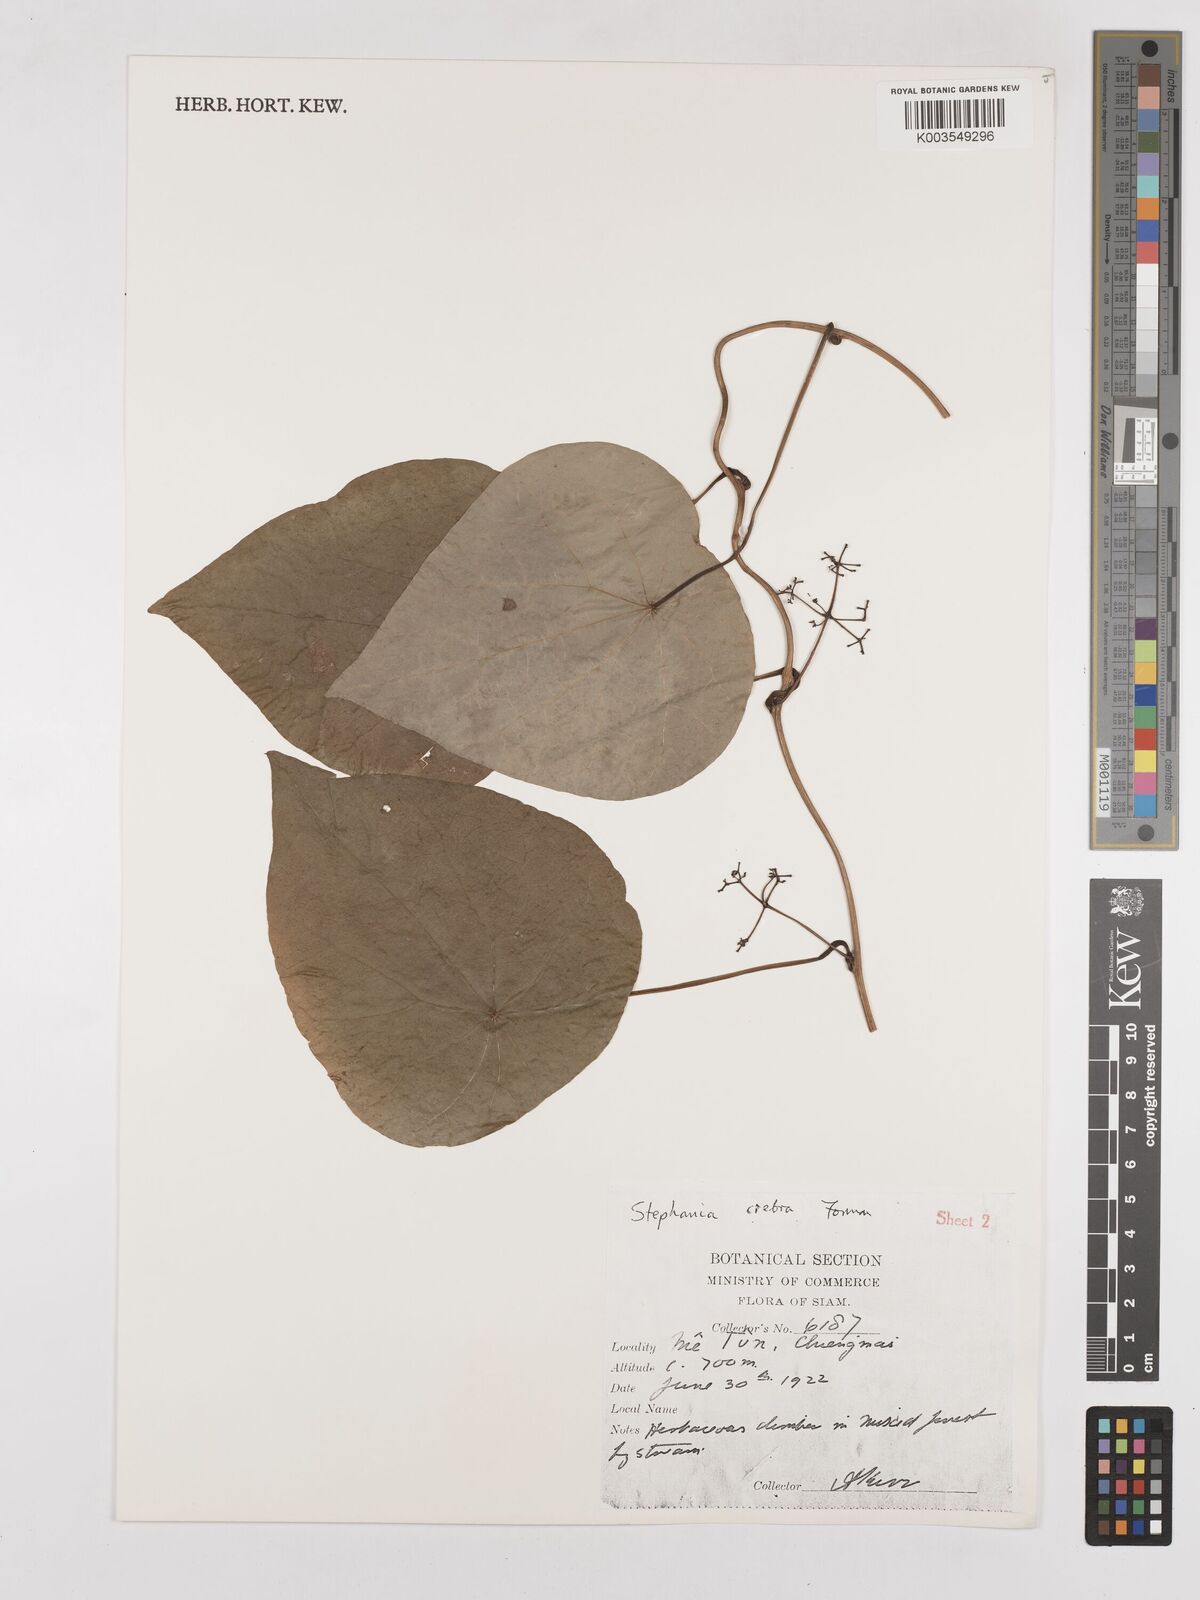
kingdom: Plantae
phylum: Tracheophyta
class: Magnoliopsida
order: Ranunculales
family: Menispermaceae
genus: Stephania
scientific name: Stephania crebra
